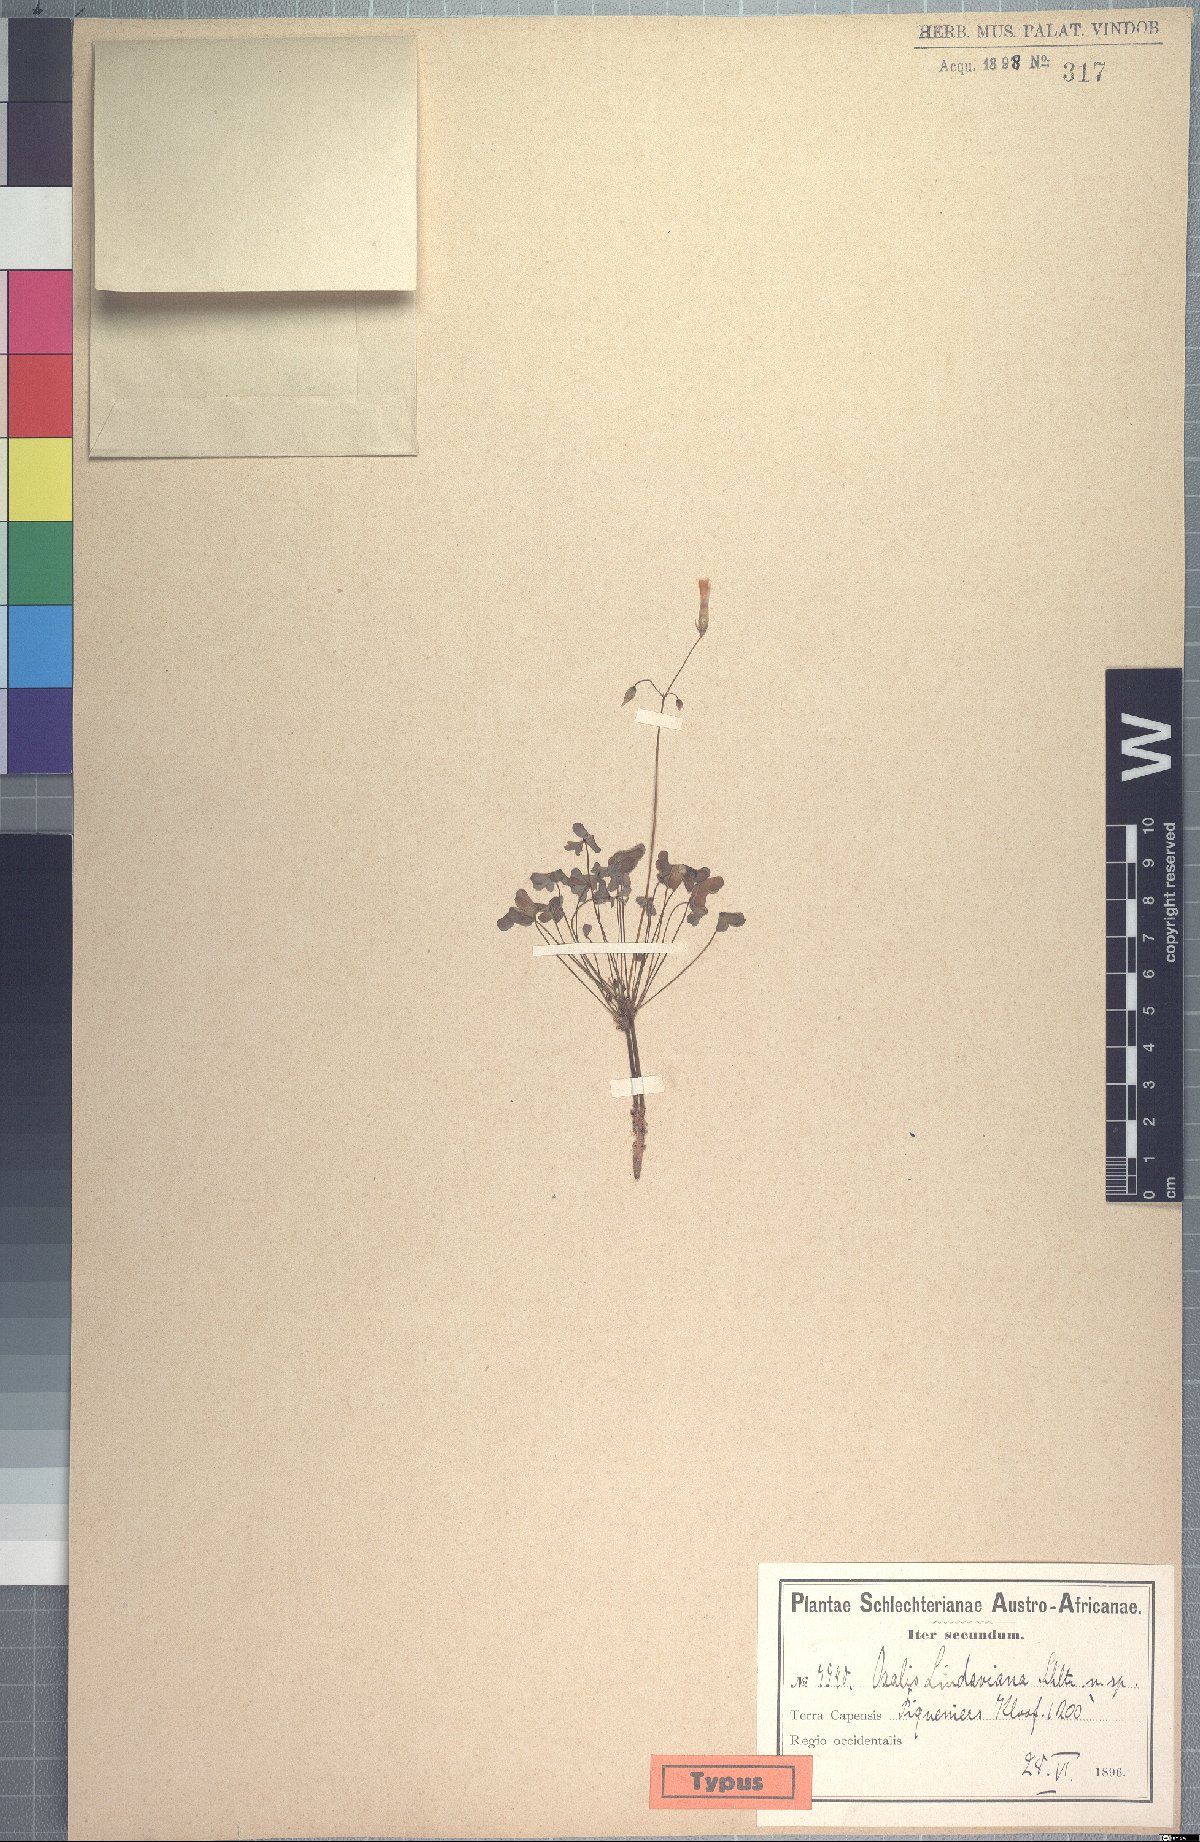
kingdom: Plantae
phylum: Tracheophyta
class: Magnoliopsida
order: Oxalidales
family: Oxalidaceae
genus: Oxalis
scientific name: Oxalis lindaviana
